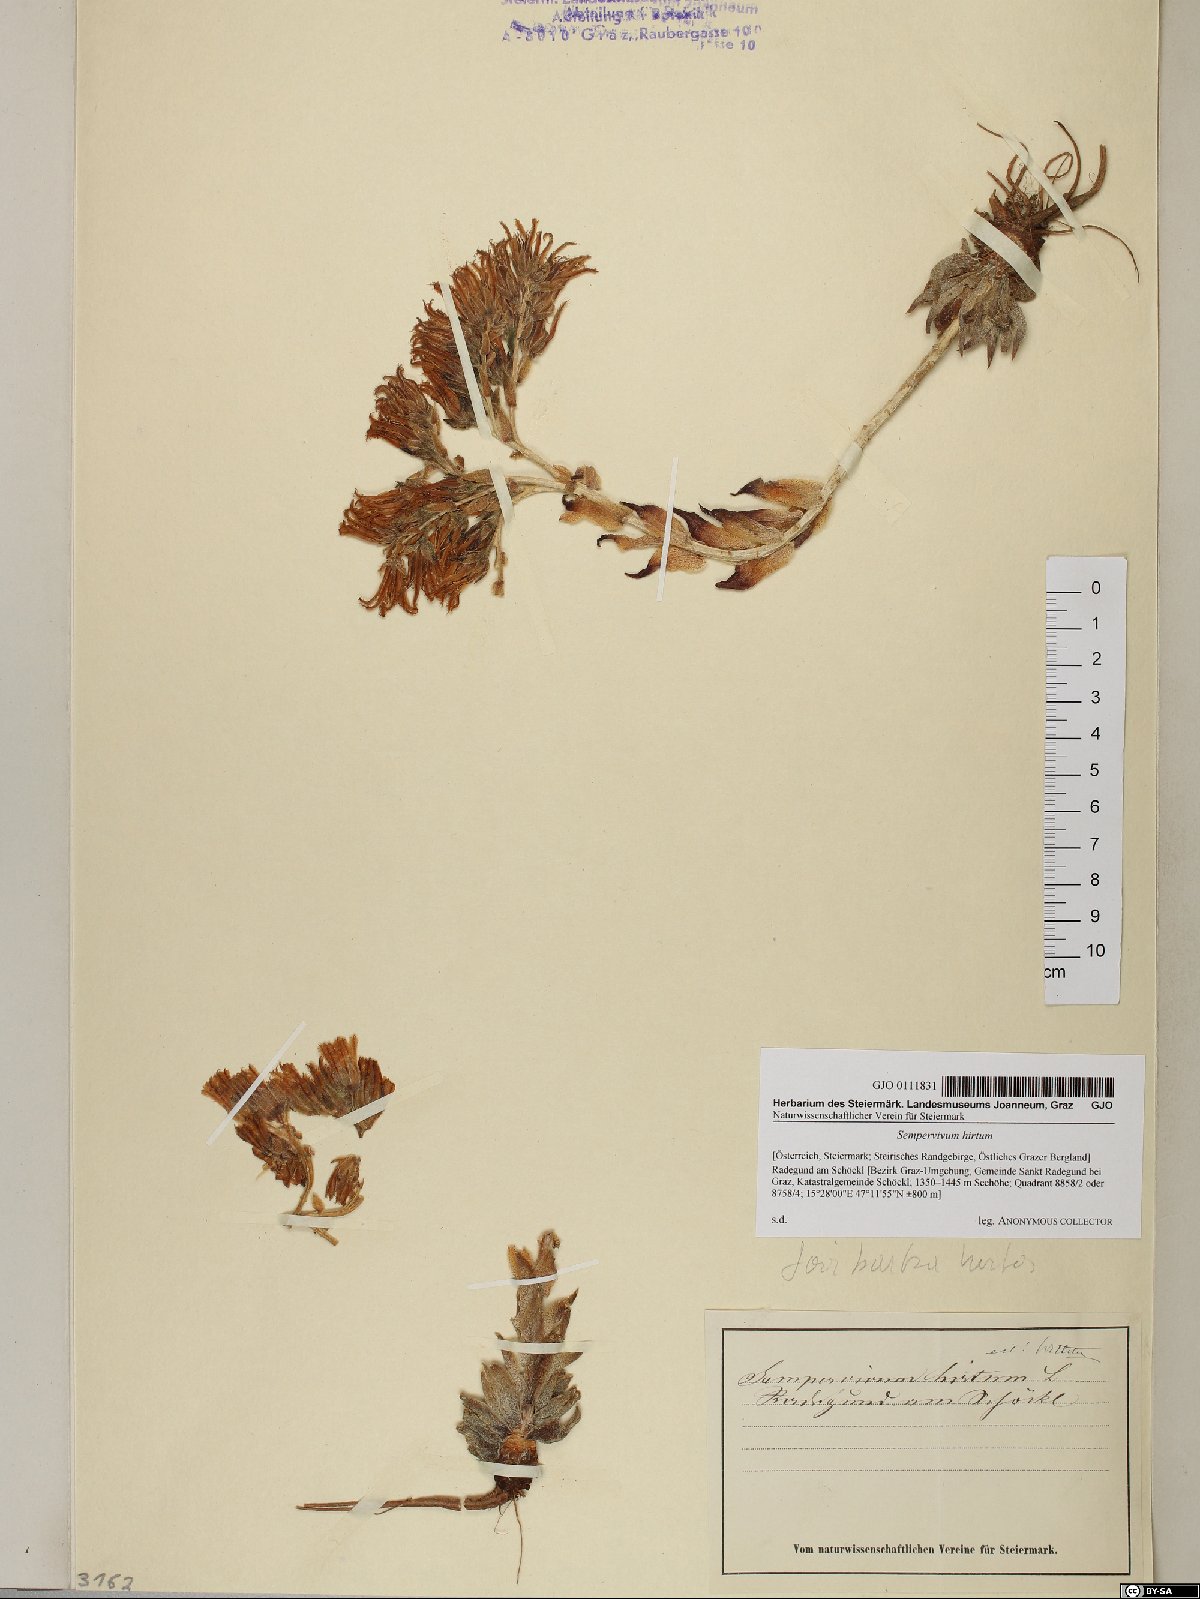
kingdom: Plantae
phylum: Tracheophyta
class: Magnoliopsida
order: Saxifragales
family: Crassulaceae
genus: Sempervivum
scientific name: Sempervivum globiferum
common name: Rolling hen-and-chicks
